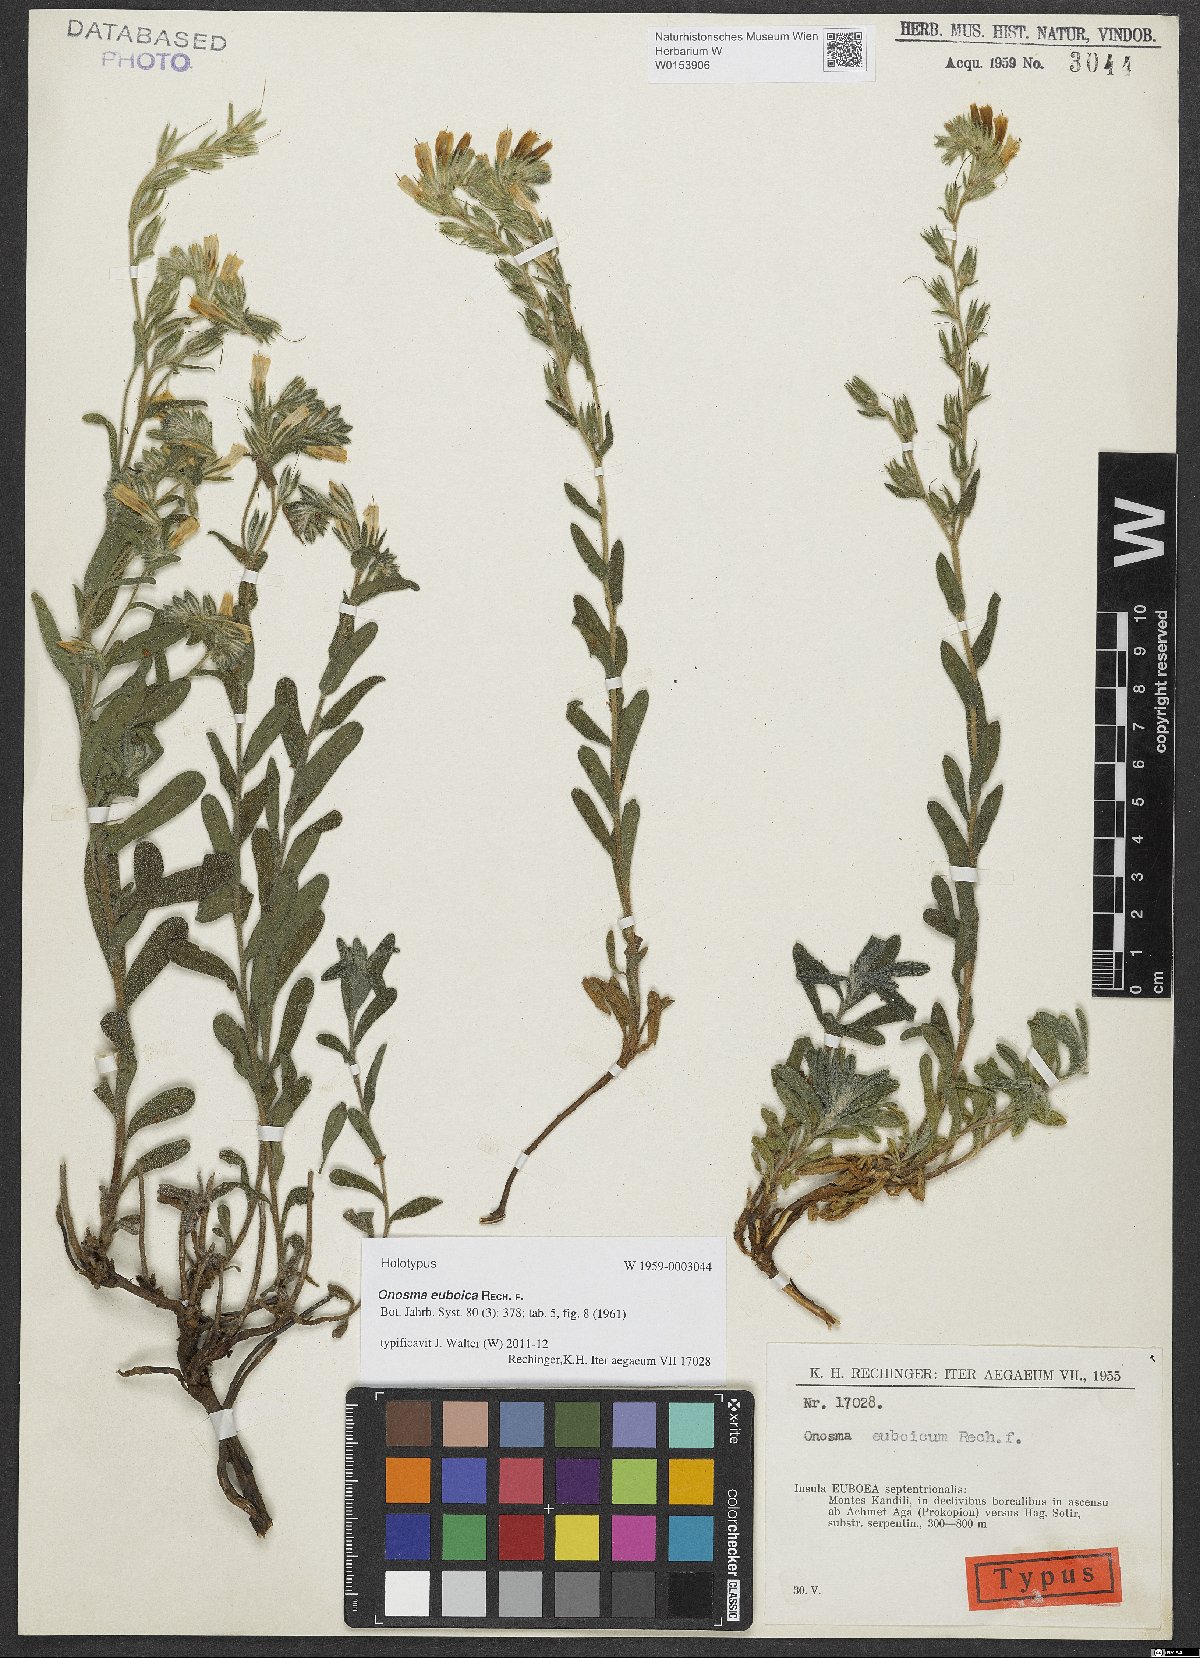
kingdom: Plantae
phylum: Tracheophyta
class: Magnoliopsida
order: Boraginales
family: Boraginaceae
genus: Onosma
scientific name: Onosma euboica
